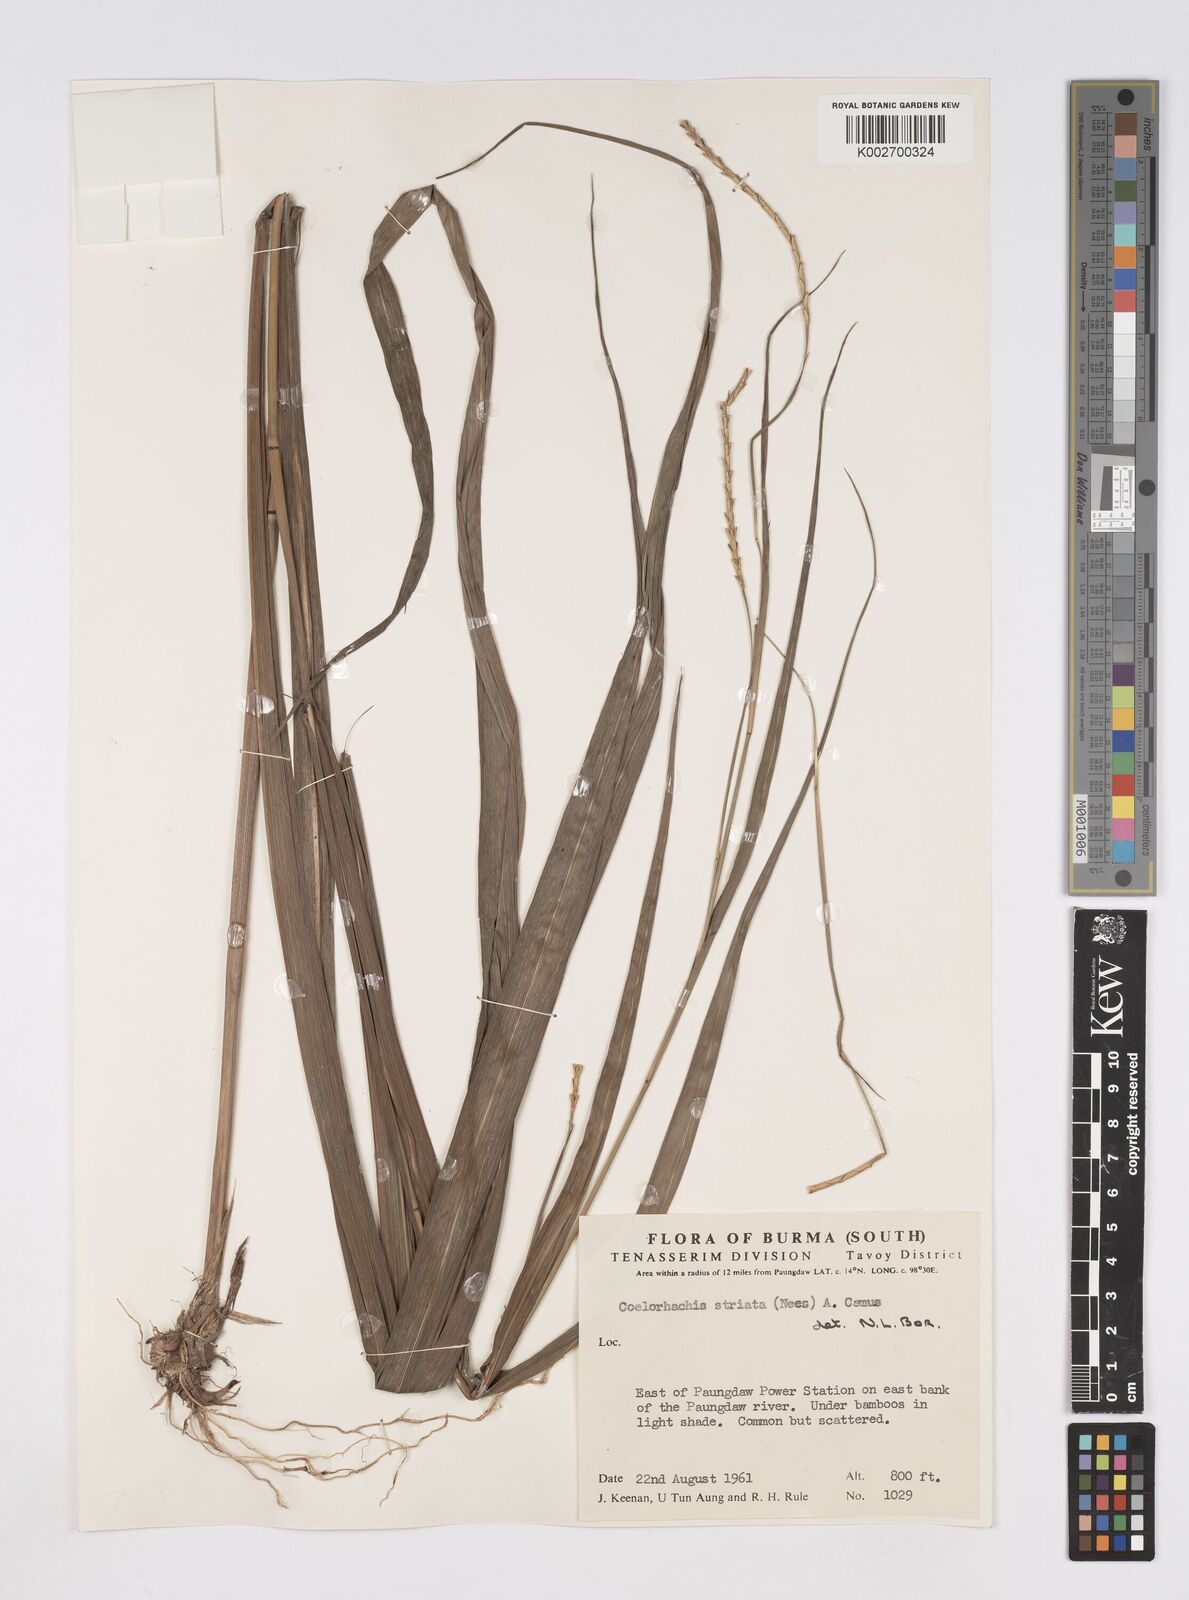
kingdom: Plantae
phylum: Tracheophyta
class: Liliopsida
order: Poales
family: Poaceae
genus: Rottboellia
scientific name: Rottboellia striata
